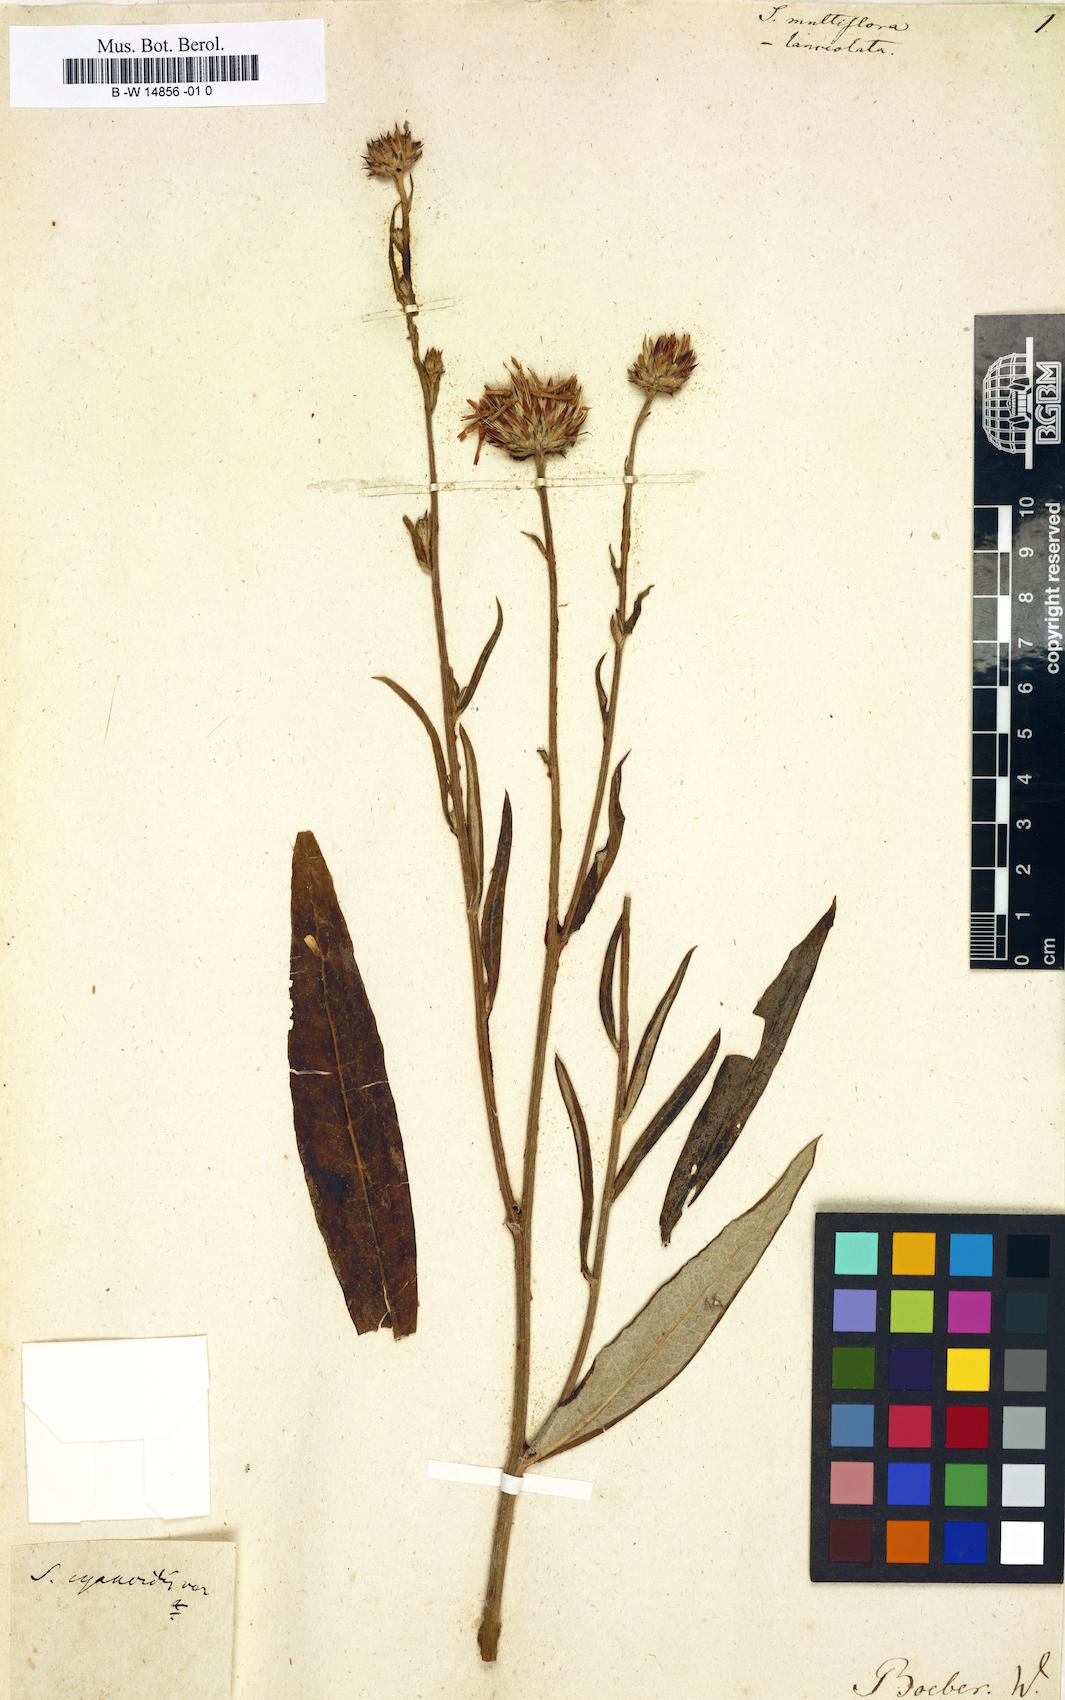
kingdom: Plantae
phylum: Tracheophyta
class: Magnoliopsida
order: Asterales
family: Asteraceae
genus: Serratula
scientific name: Serratula multiflora
